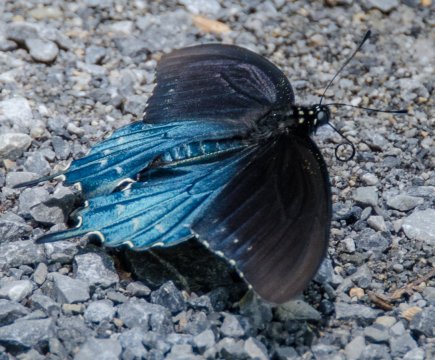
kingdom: Animalia
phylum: Arthropoda
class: Insecta
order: Lepidoptera
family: Papilionidae
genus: Battus
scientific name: Battus philenor
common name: Pipevine Swallowtail
